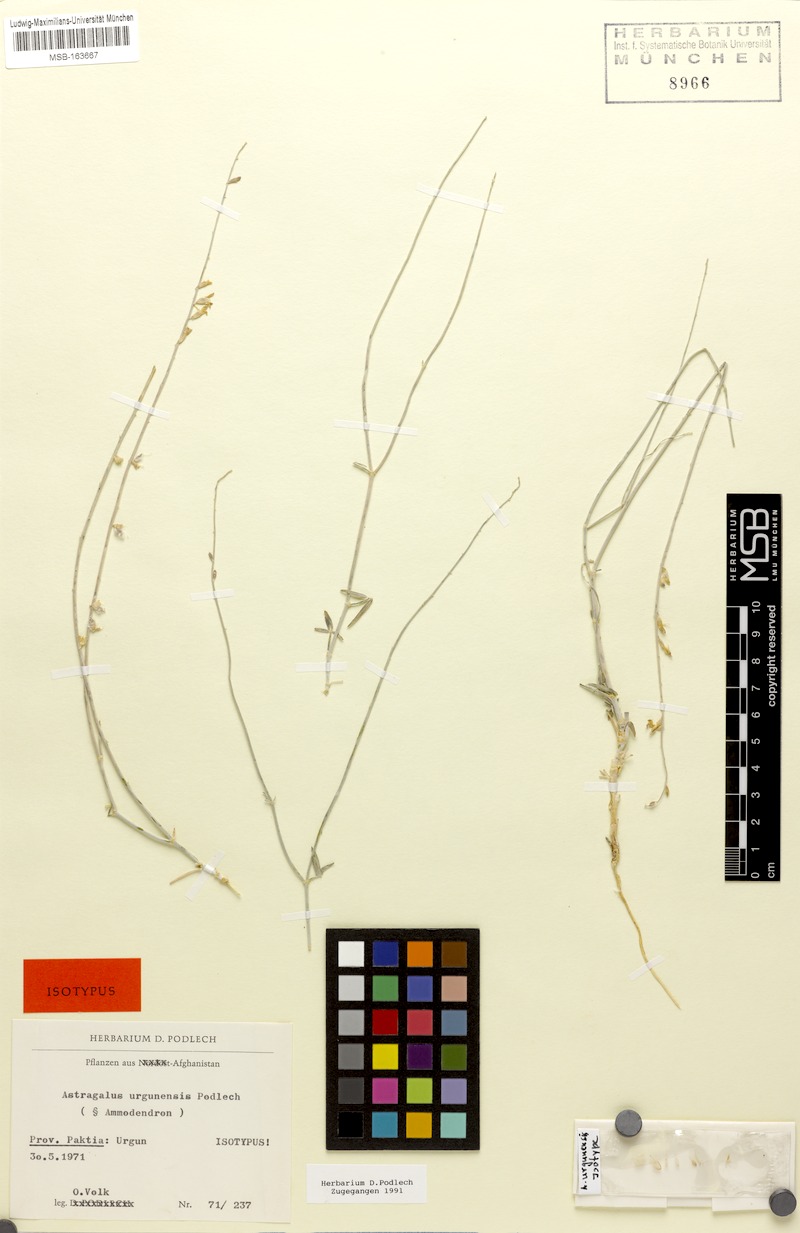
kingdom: Plantae
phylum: Tracheophyta
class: Magnoliopsida
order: Fabales
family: Fabaceae
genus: Astragalus
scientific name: Astragalus urgunensis
